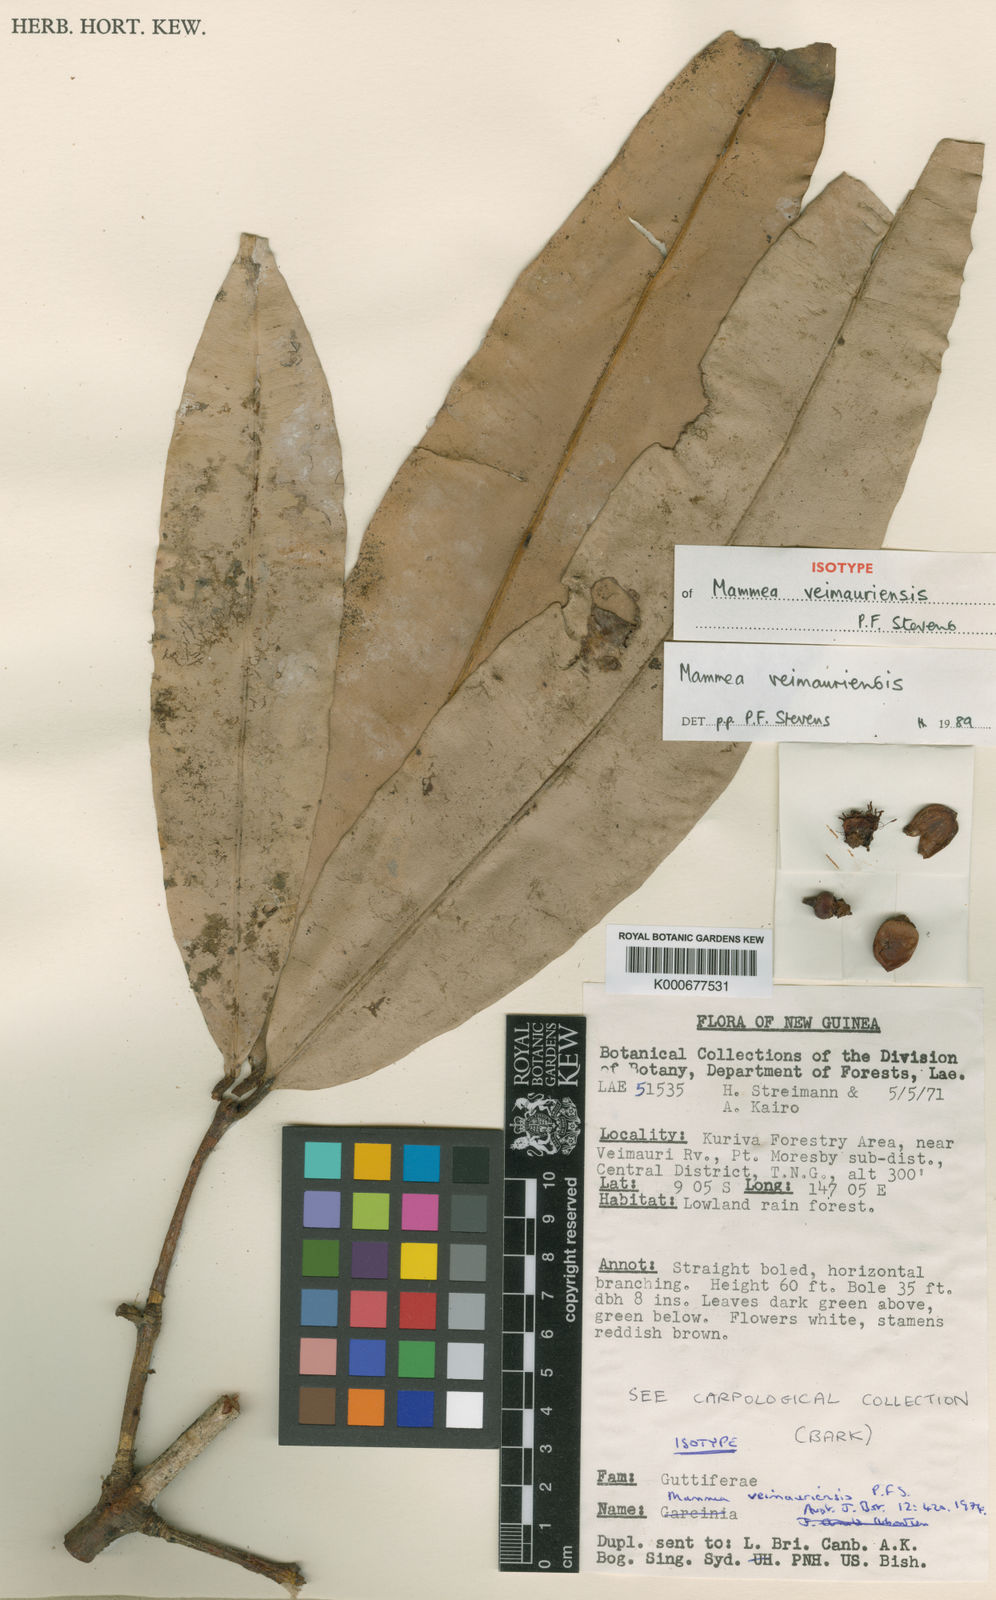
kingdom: Plantae
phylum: Tracheophyta
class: Magnoliopsida
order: Malpighiales
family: Calophyllaceae
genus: Mammea
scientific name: Mammea veimauriensis
